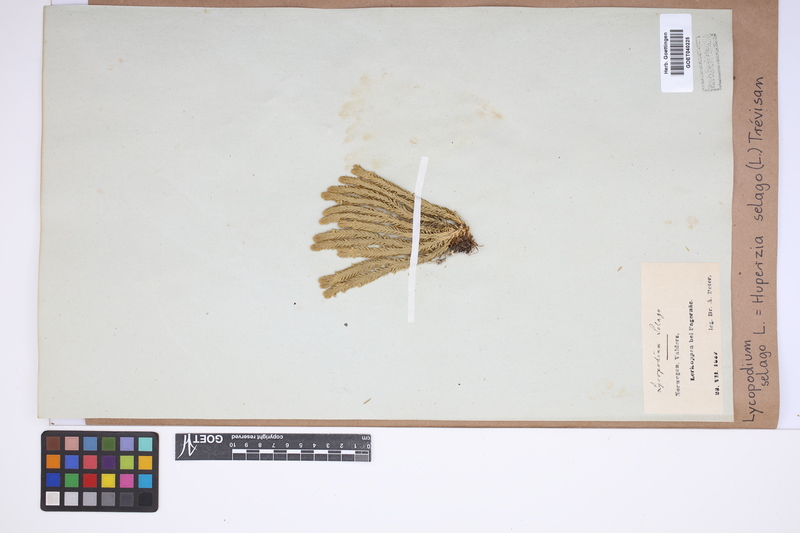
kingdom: Plantae
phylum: Tracheophyta
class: Lycopodiopsida
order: Lycopodiales
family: Lycopodiaceae
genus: Huperzia
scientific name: Huperzia selago
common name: Northern firmoss
